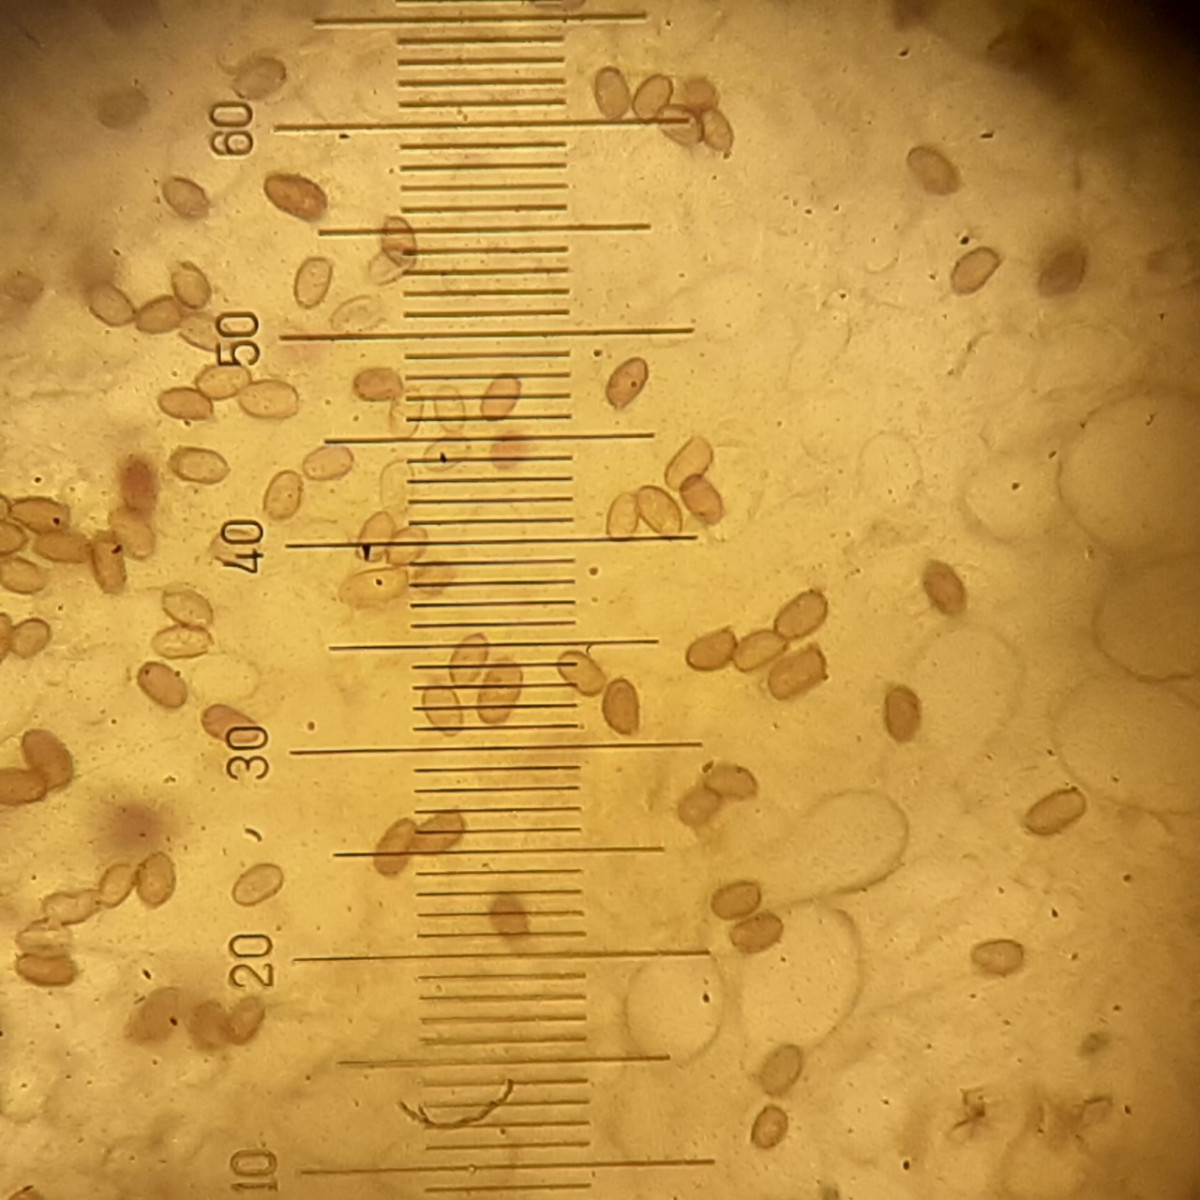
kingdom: Fungi
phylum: Basidiomycota
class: Agaricomycetes
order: Agaricales
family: Agaricaceae
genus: Agaricus
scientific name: Agaricus langei
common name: stor blod-champignon
